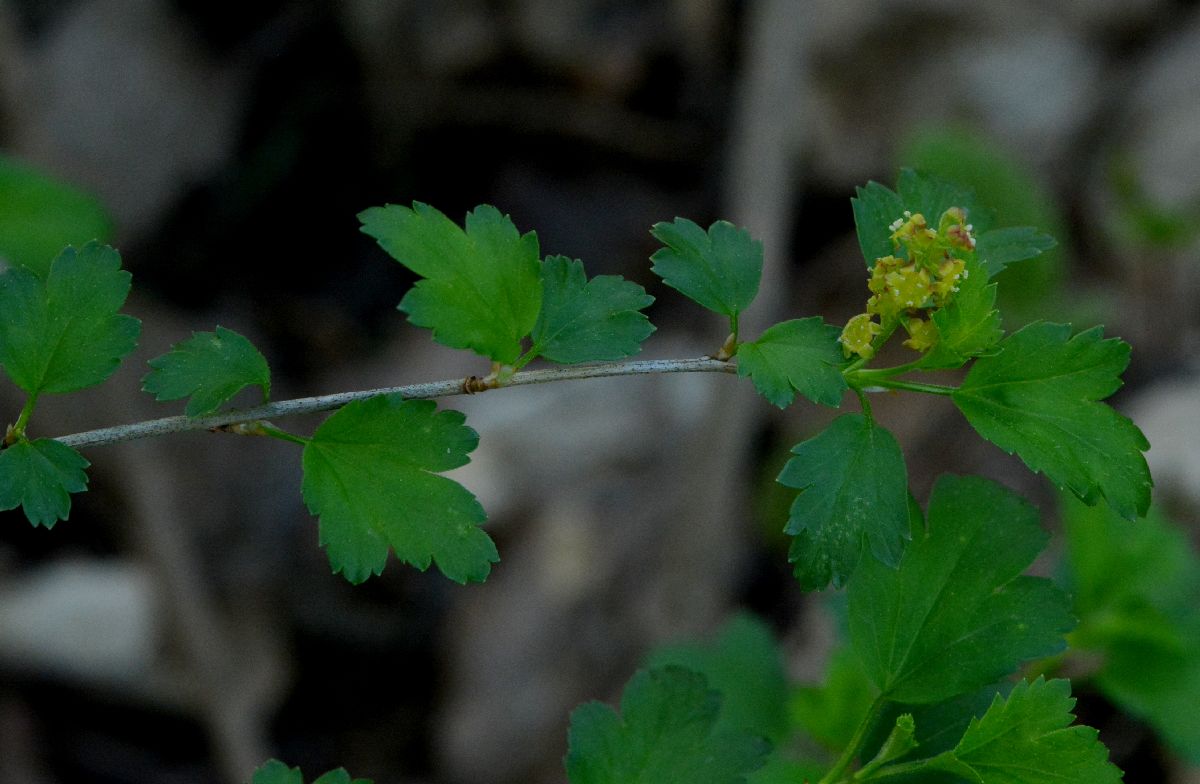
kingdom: Plantae
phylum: Tracheophyta
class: Magnoliopsida
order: Saxifragales
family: Grossulariaceae
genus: Ribes
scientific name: Ribes alpinum
